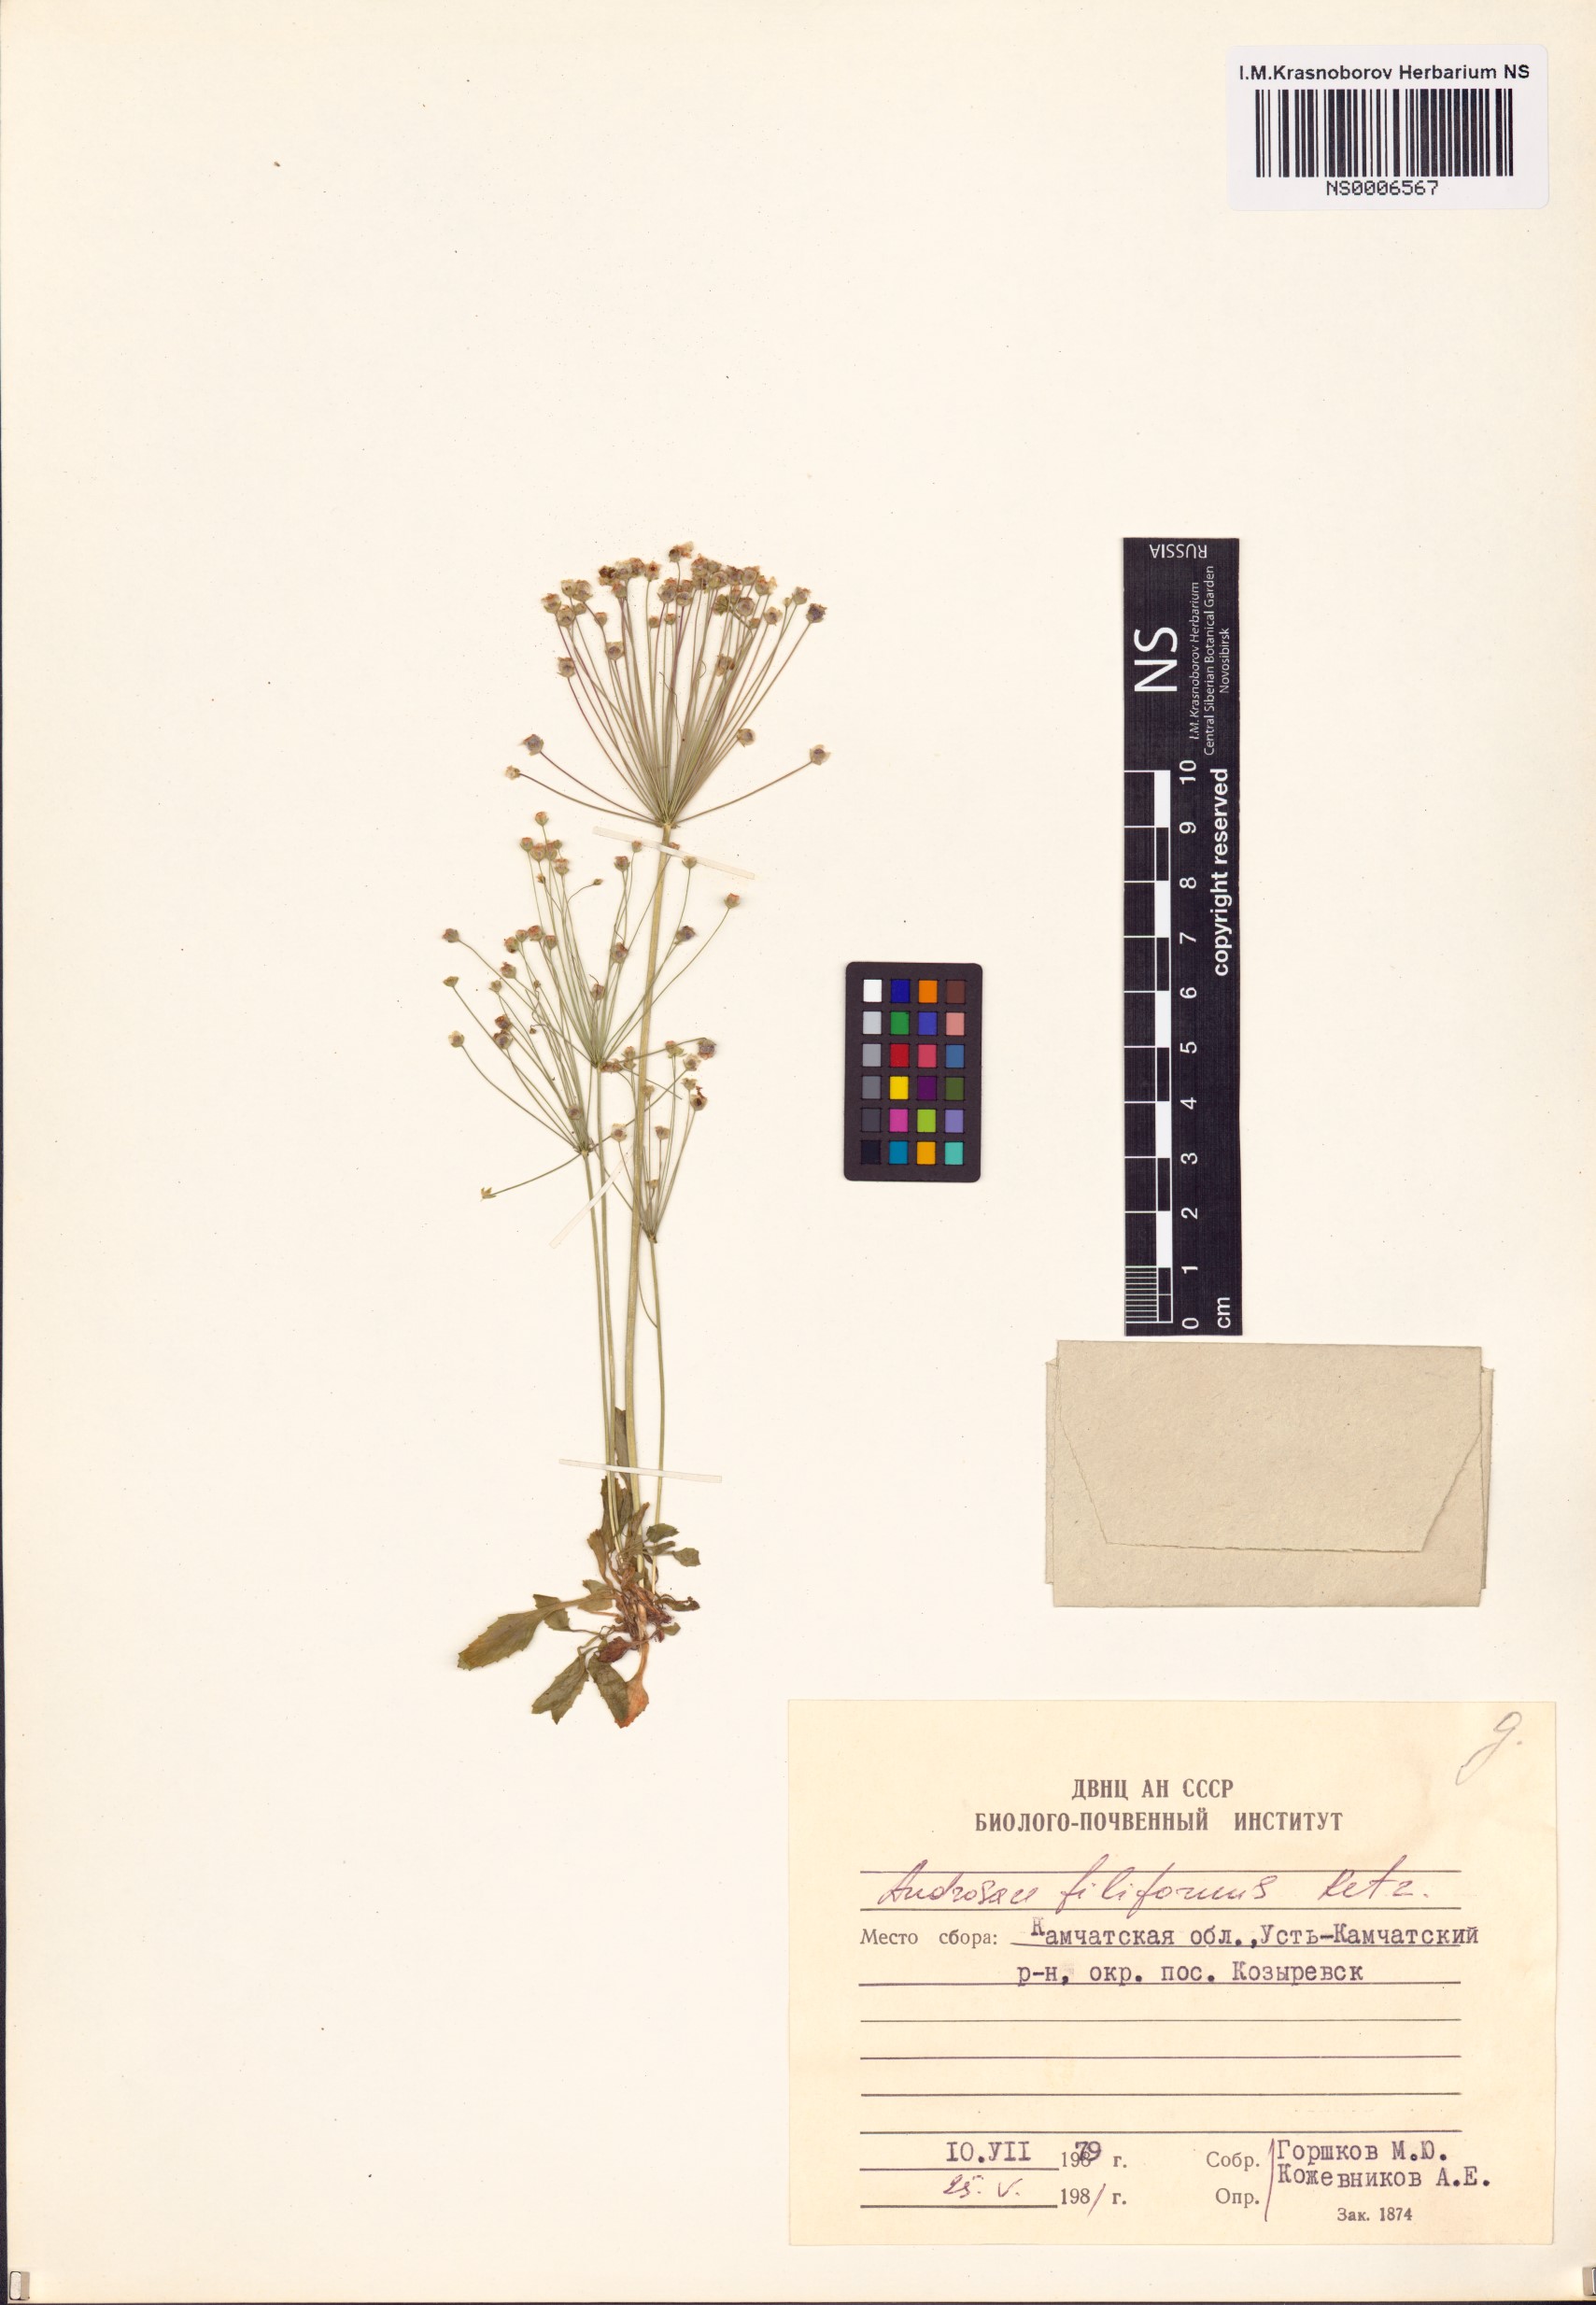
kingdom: Plantae
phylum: Tracheophyta
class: Magnoliopsida
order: Ericales
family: Primulaceae
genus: Androsace
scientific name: Androsace filiformis
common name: Filiform rock jasmine
